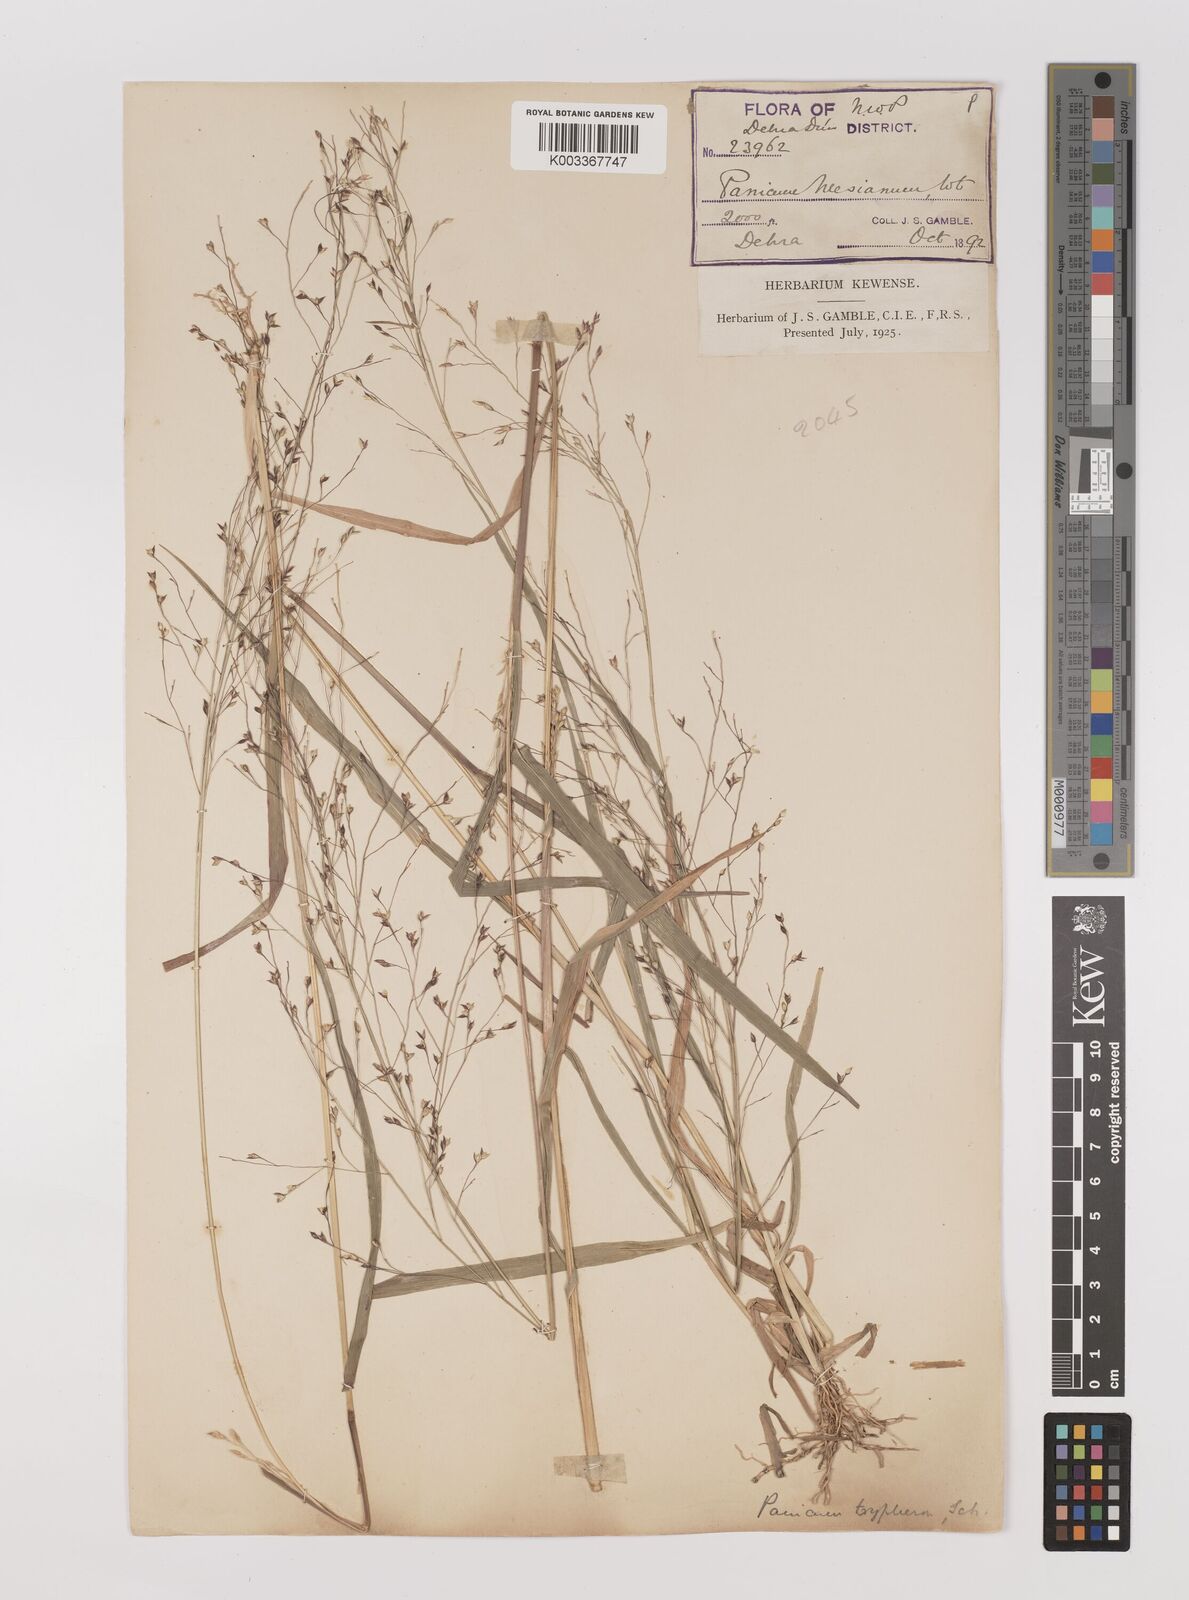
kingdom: Plantae
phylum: Tracheophyta
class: Liliopsida
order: Poales
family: Poaceae
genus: Panicum
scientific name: Panicum curviflorum
